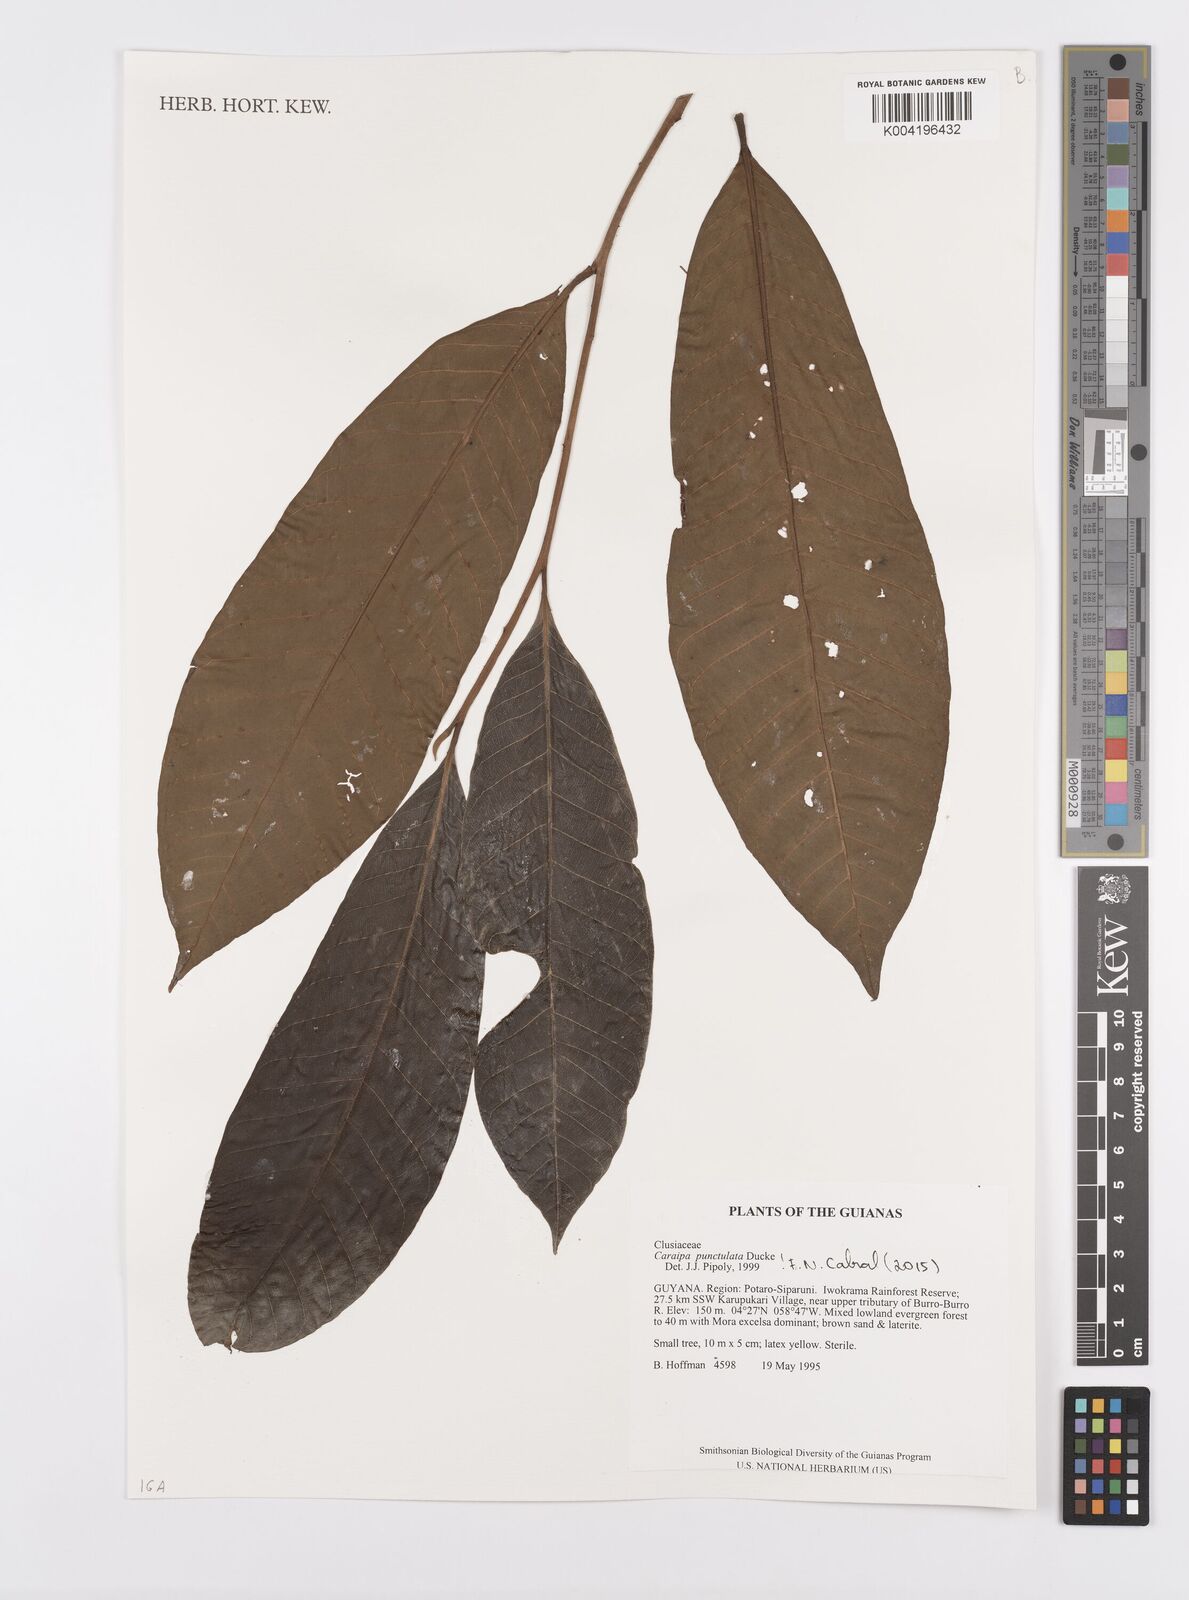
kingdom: Plantae
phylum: Tracheophyta
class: Magnoliopsida
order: Malpighiales
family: Calophyllaceae
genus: Caraipa
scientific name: Caraipa punctulata
